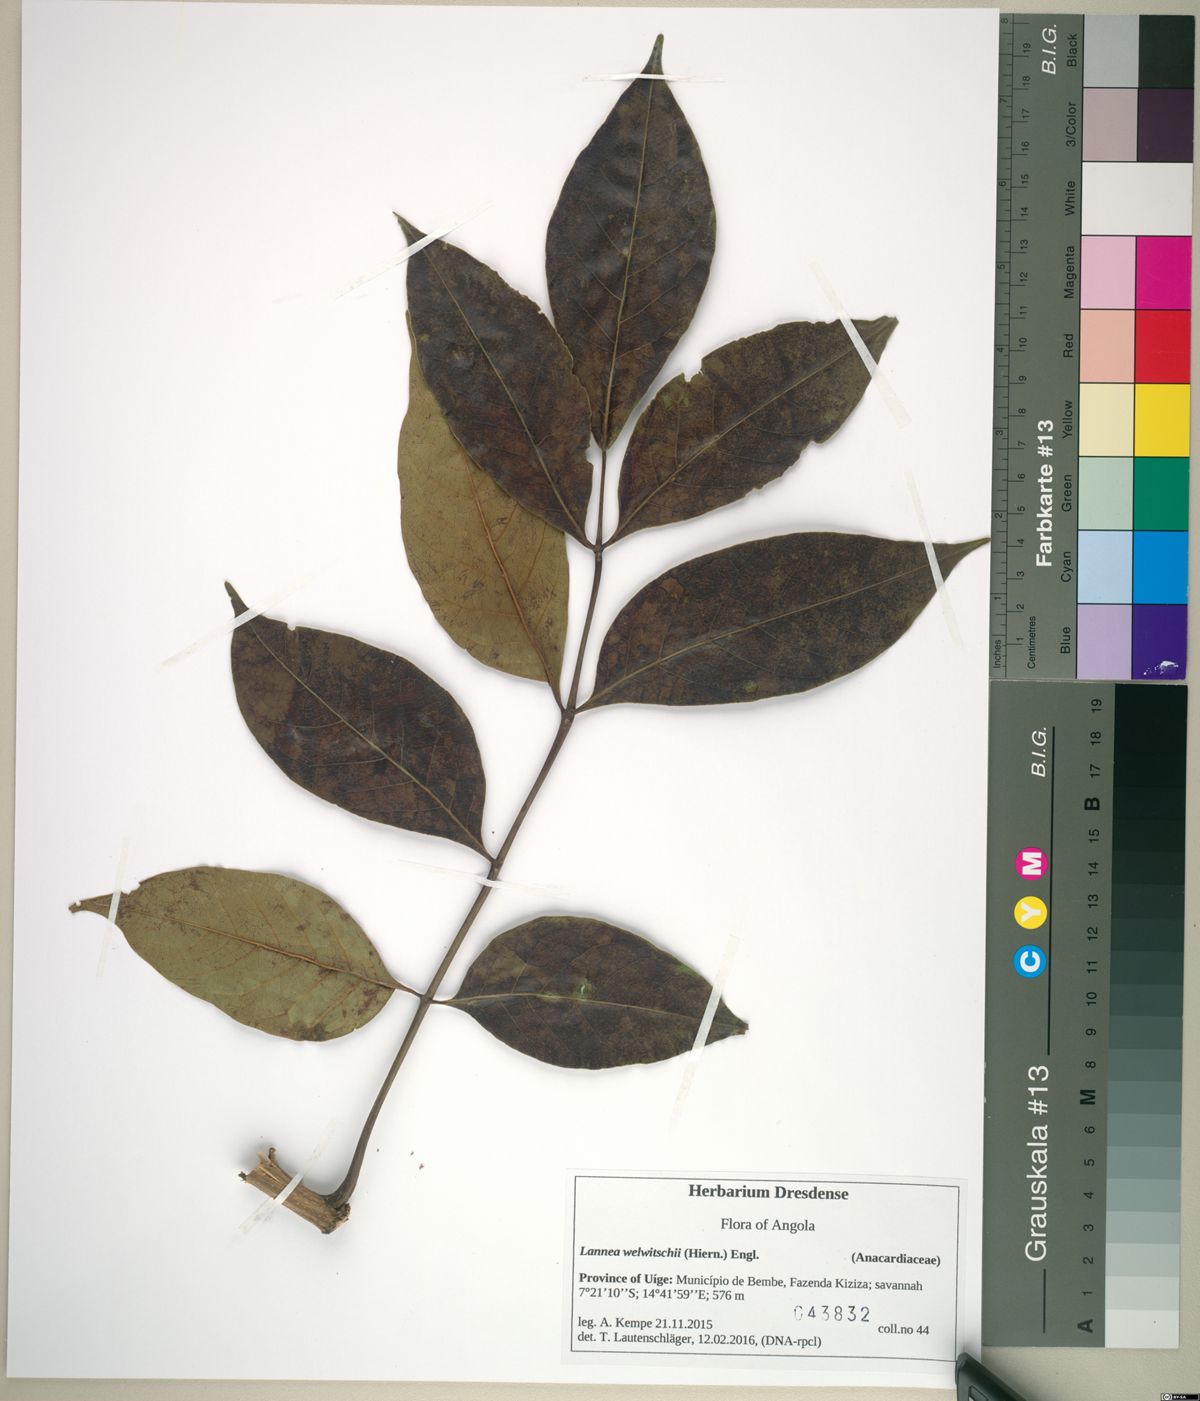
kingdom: Plantae
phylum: Tracheophyta
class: Magnoliopsida
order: Sapindales
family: Anacardiaceae
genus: Lannea
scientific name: Lannea welwitschii
